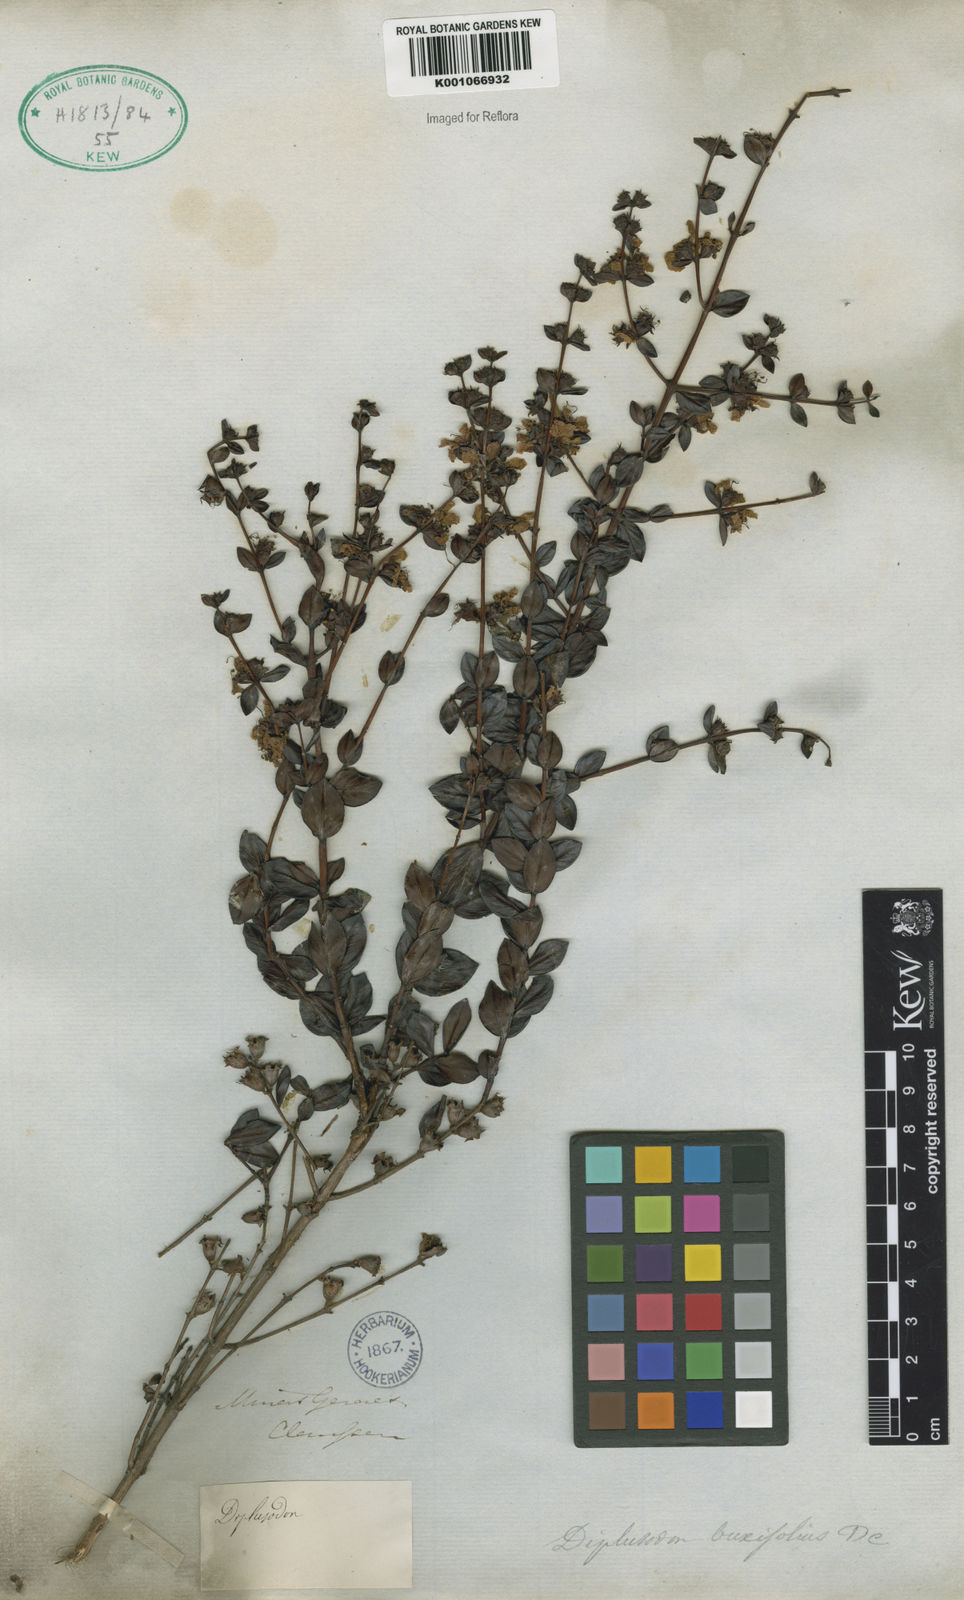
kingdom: Plantae
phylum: Tracheophyta
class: Magnoliopsida
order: Myrtales
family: Lythraceae
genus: Diplusodon
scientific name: Diplusodon buxifolius
